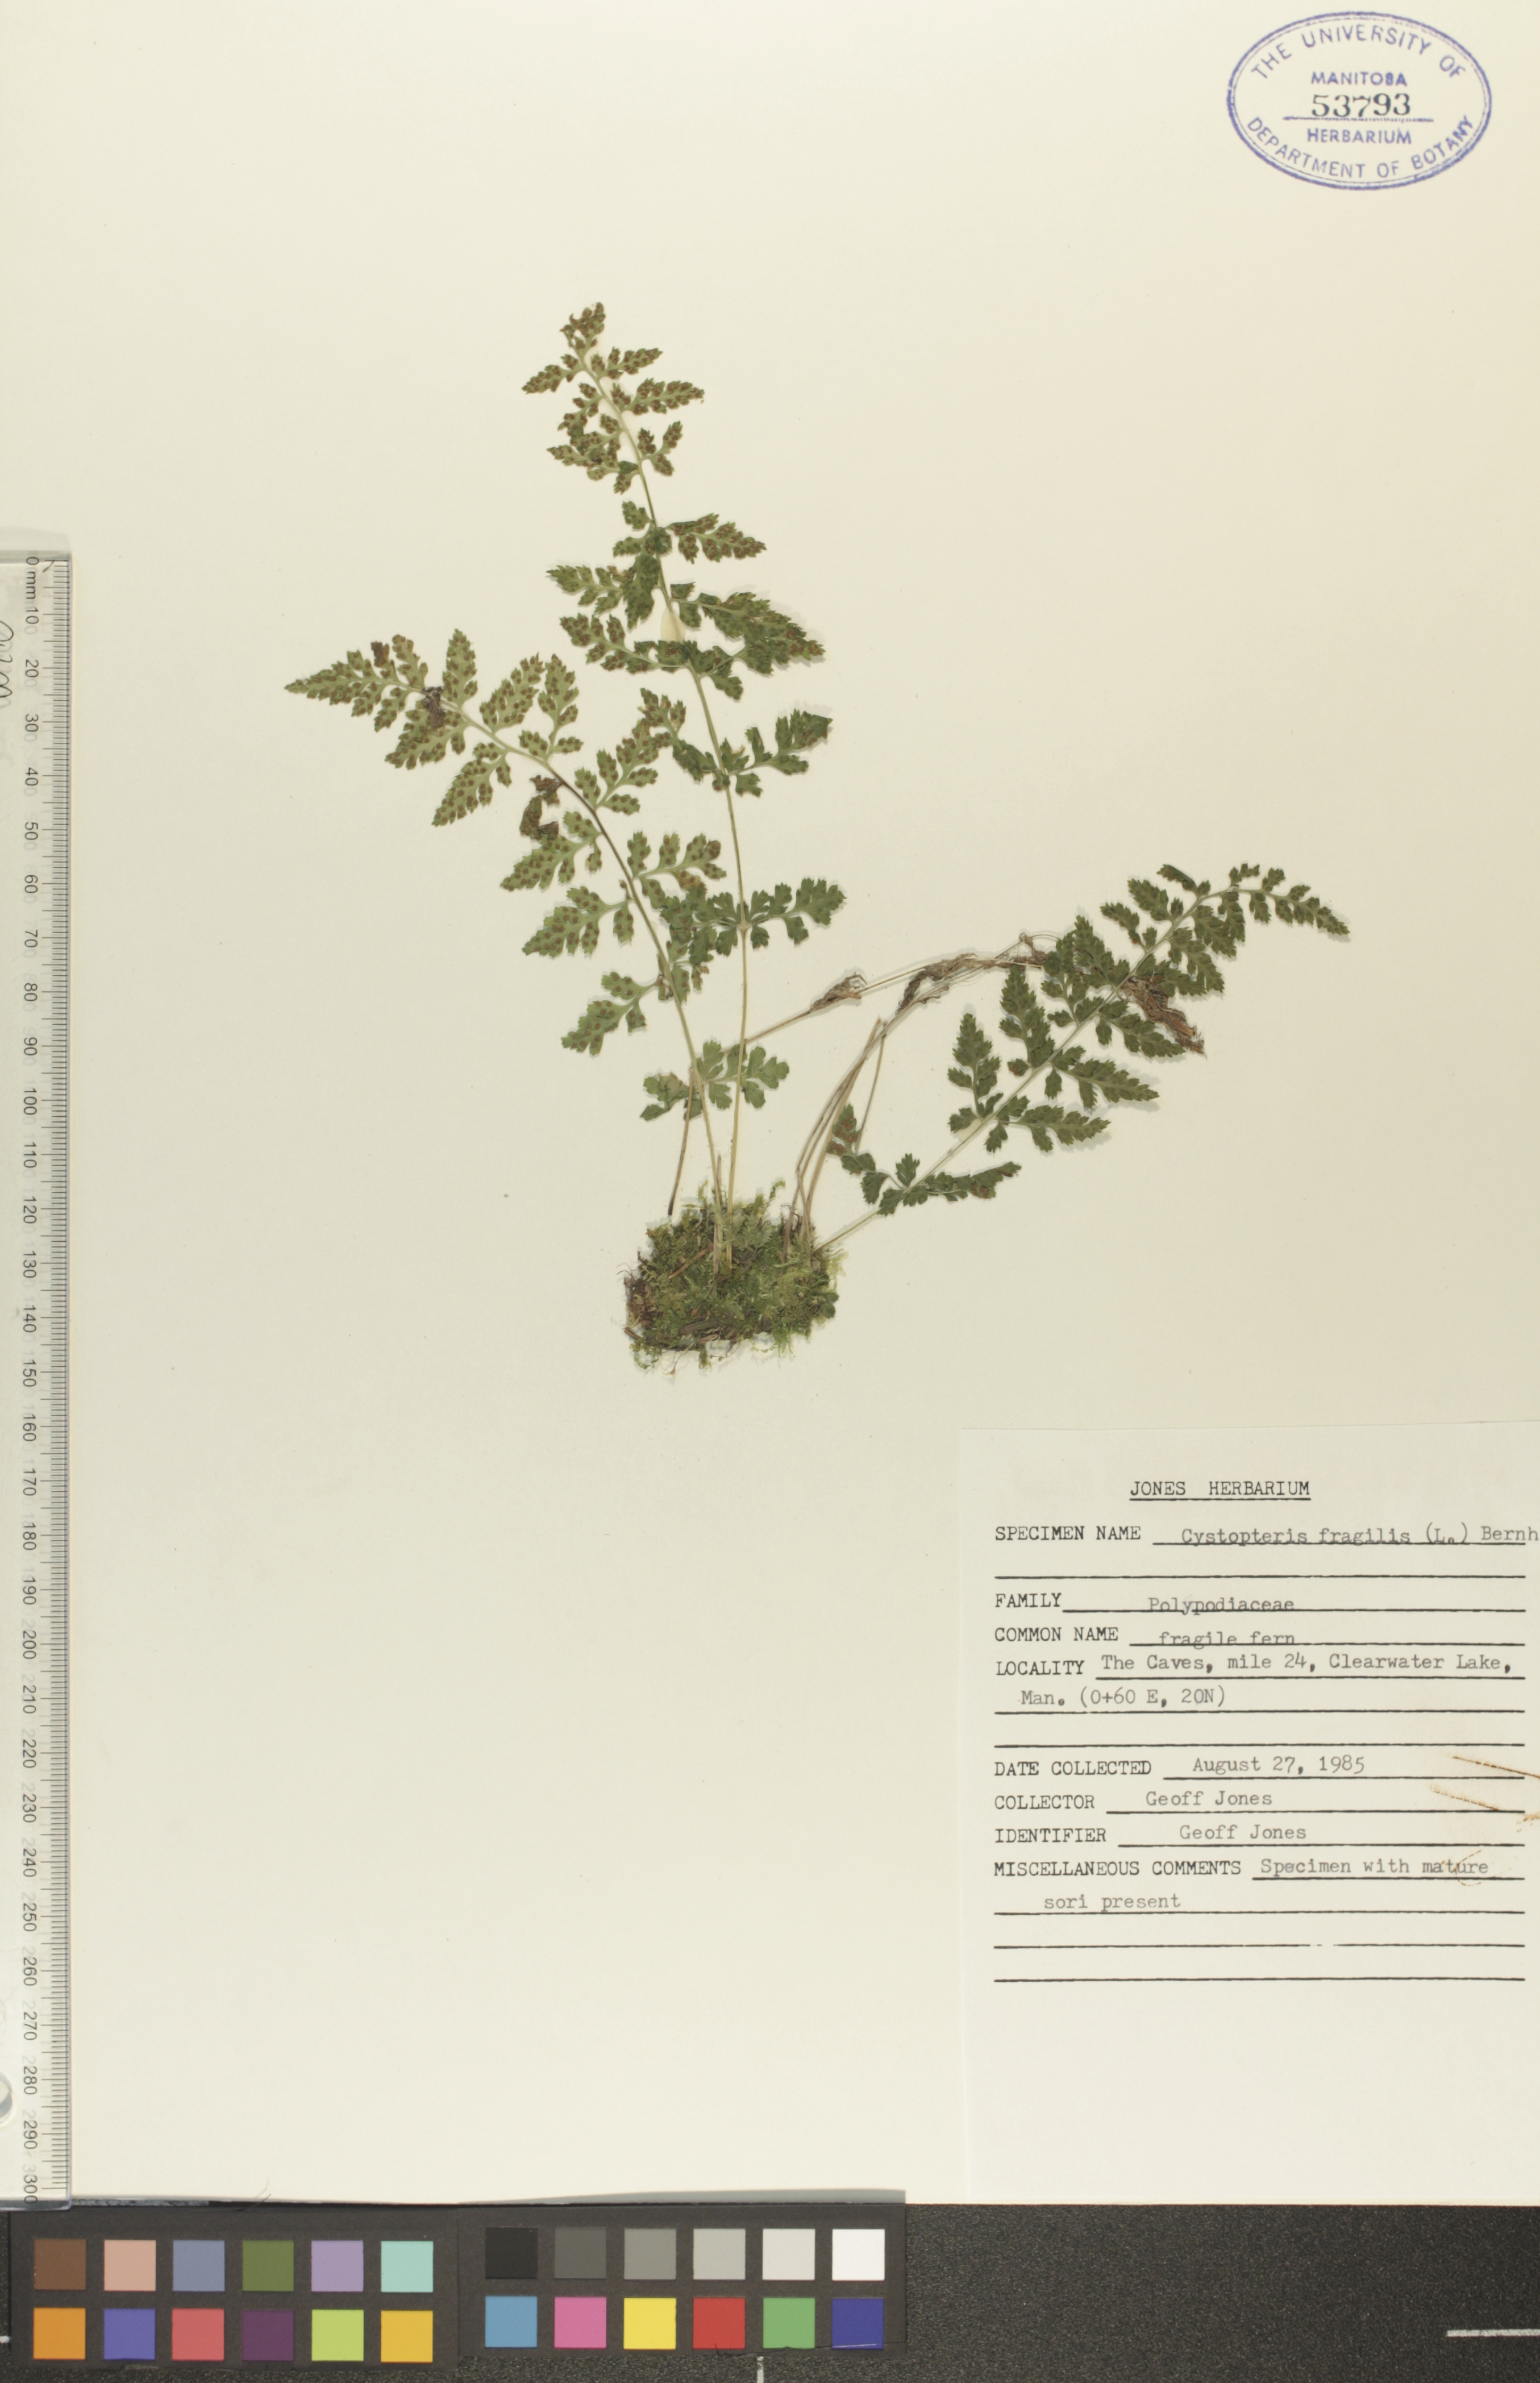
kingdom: Plantae
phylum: Tracheophyta
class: Polypodiopsida
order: Polypodiales
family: Cystopteridaceae
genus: Cystopteris
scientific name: Cystopteris fragilis
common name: Brittle bladder fern
